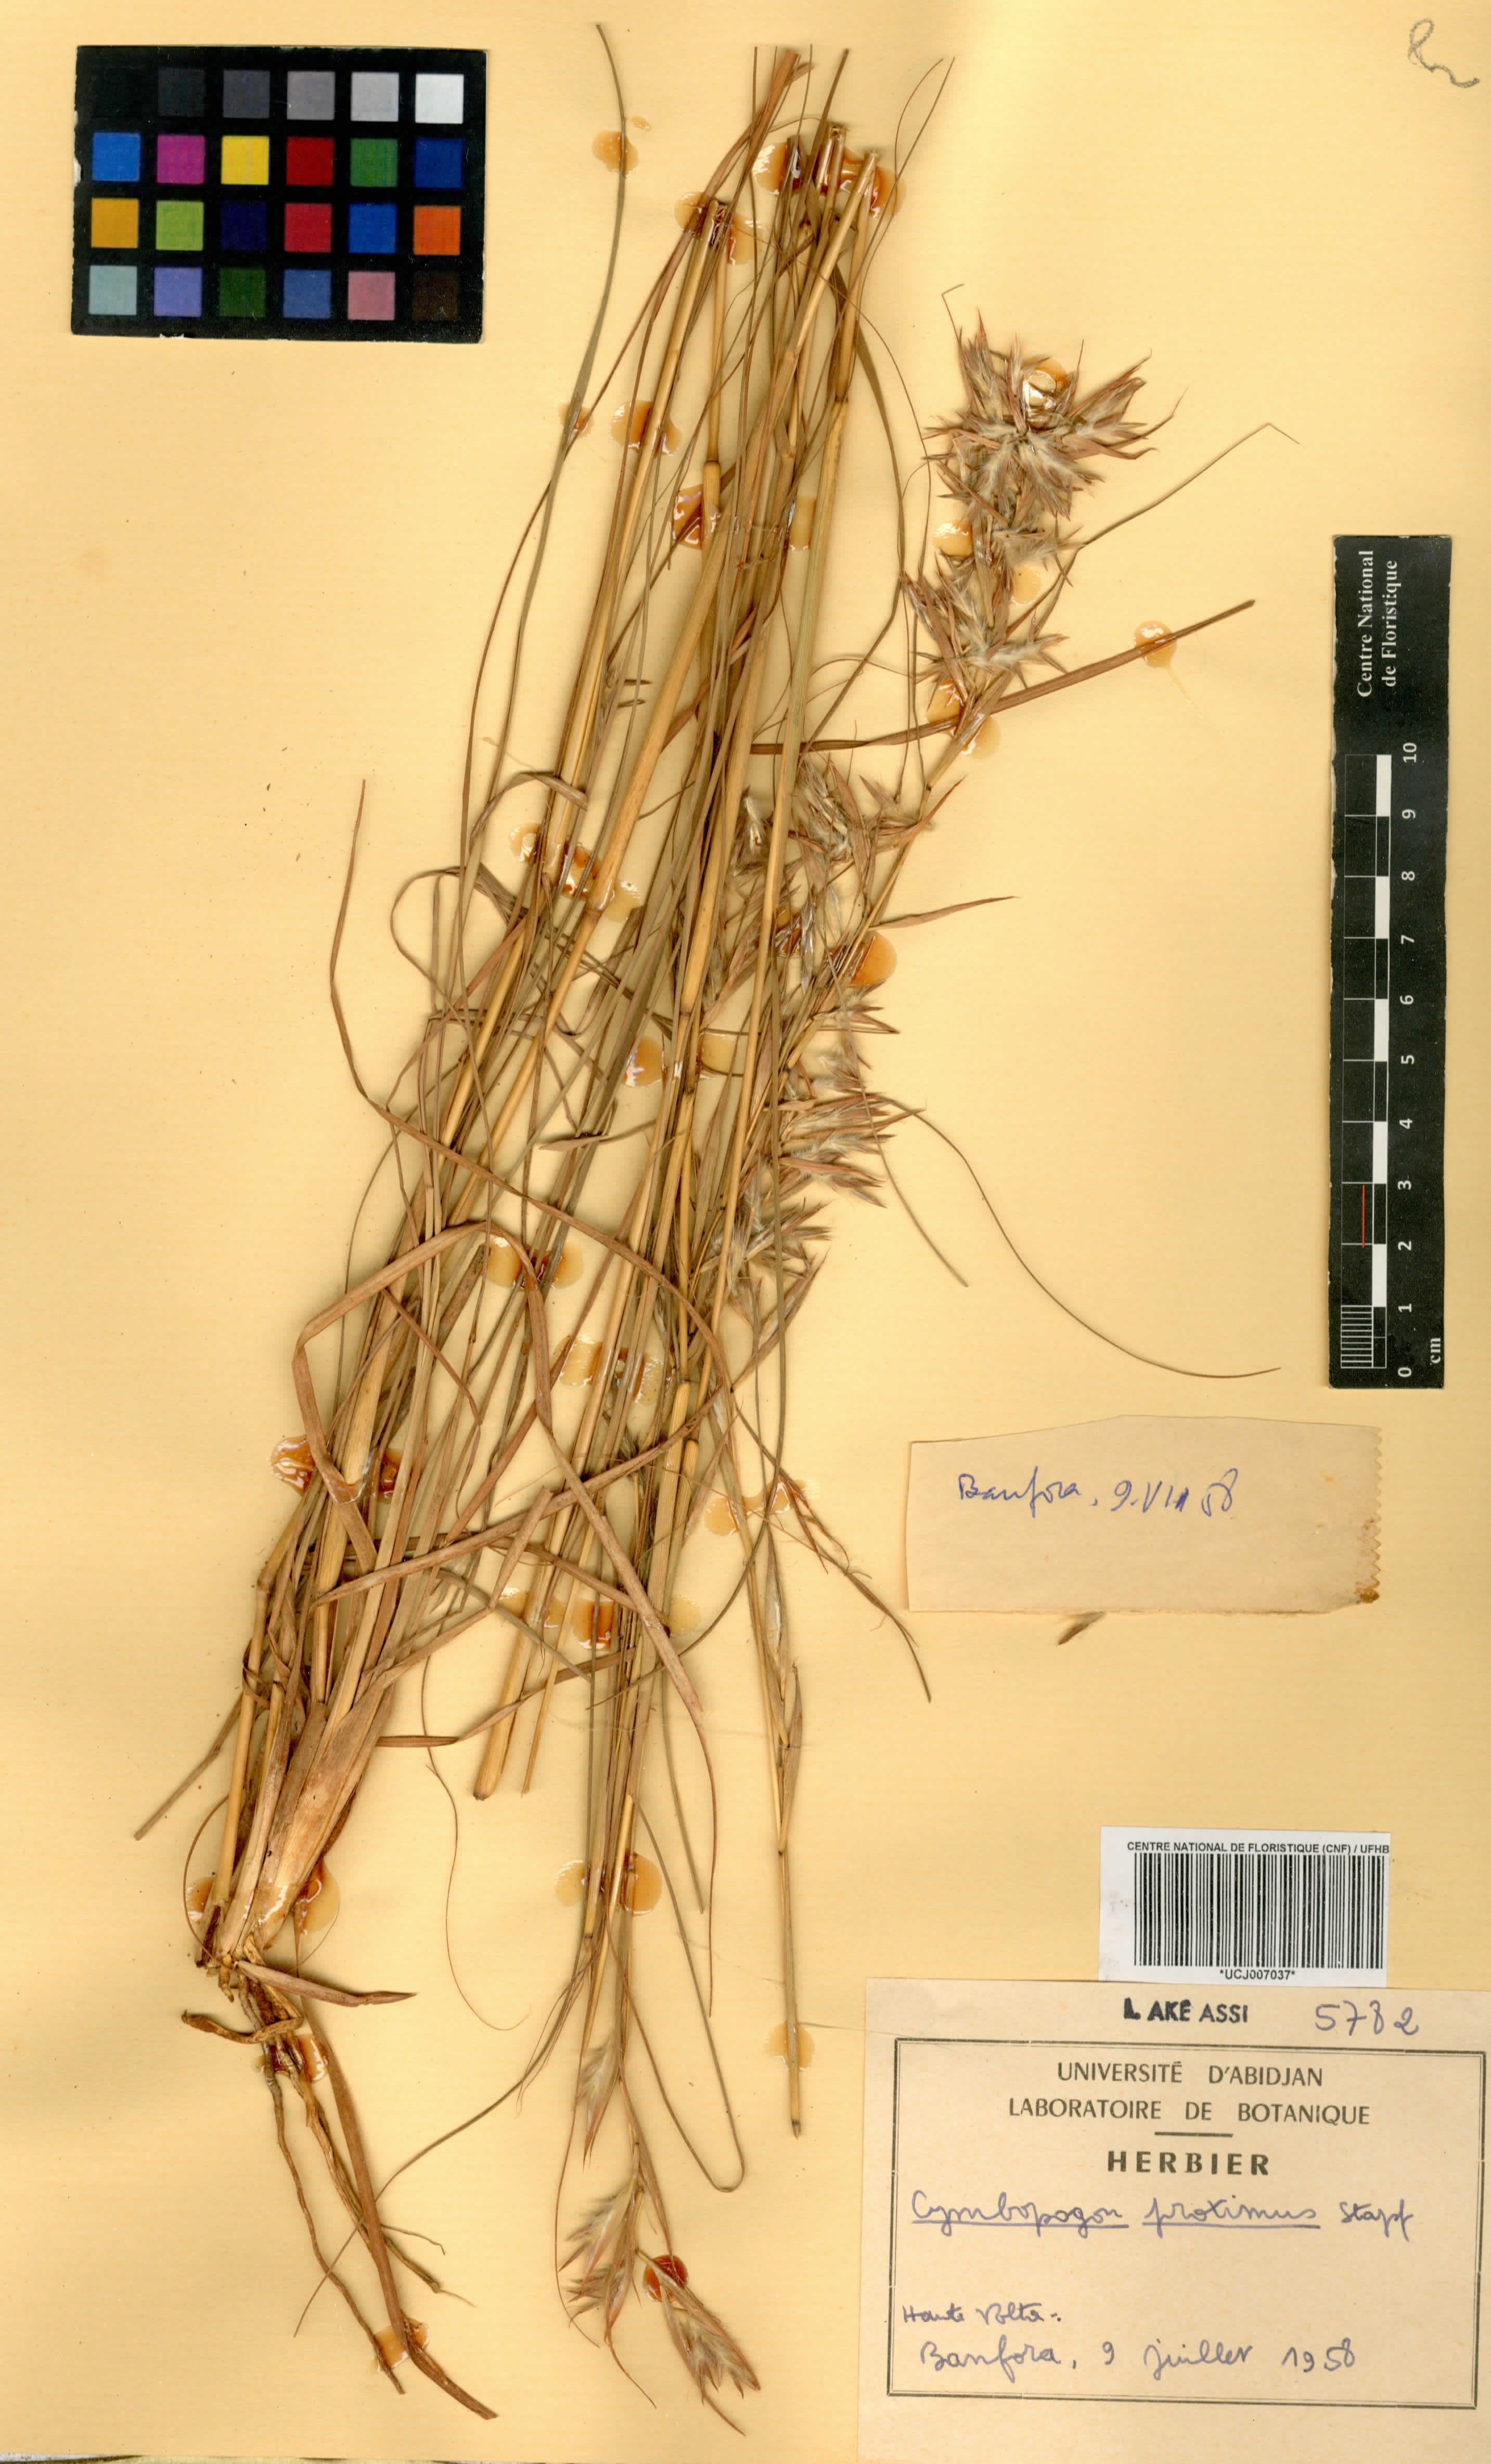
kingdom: Plantae
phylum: Tracheophyta
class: Liliopsida
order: Poales
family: Poaceae
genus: Cymbopogon
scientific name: Cymbopogon schoenanthus
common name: Geranium grass
